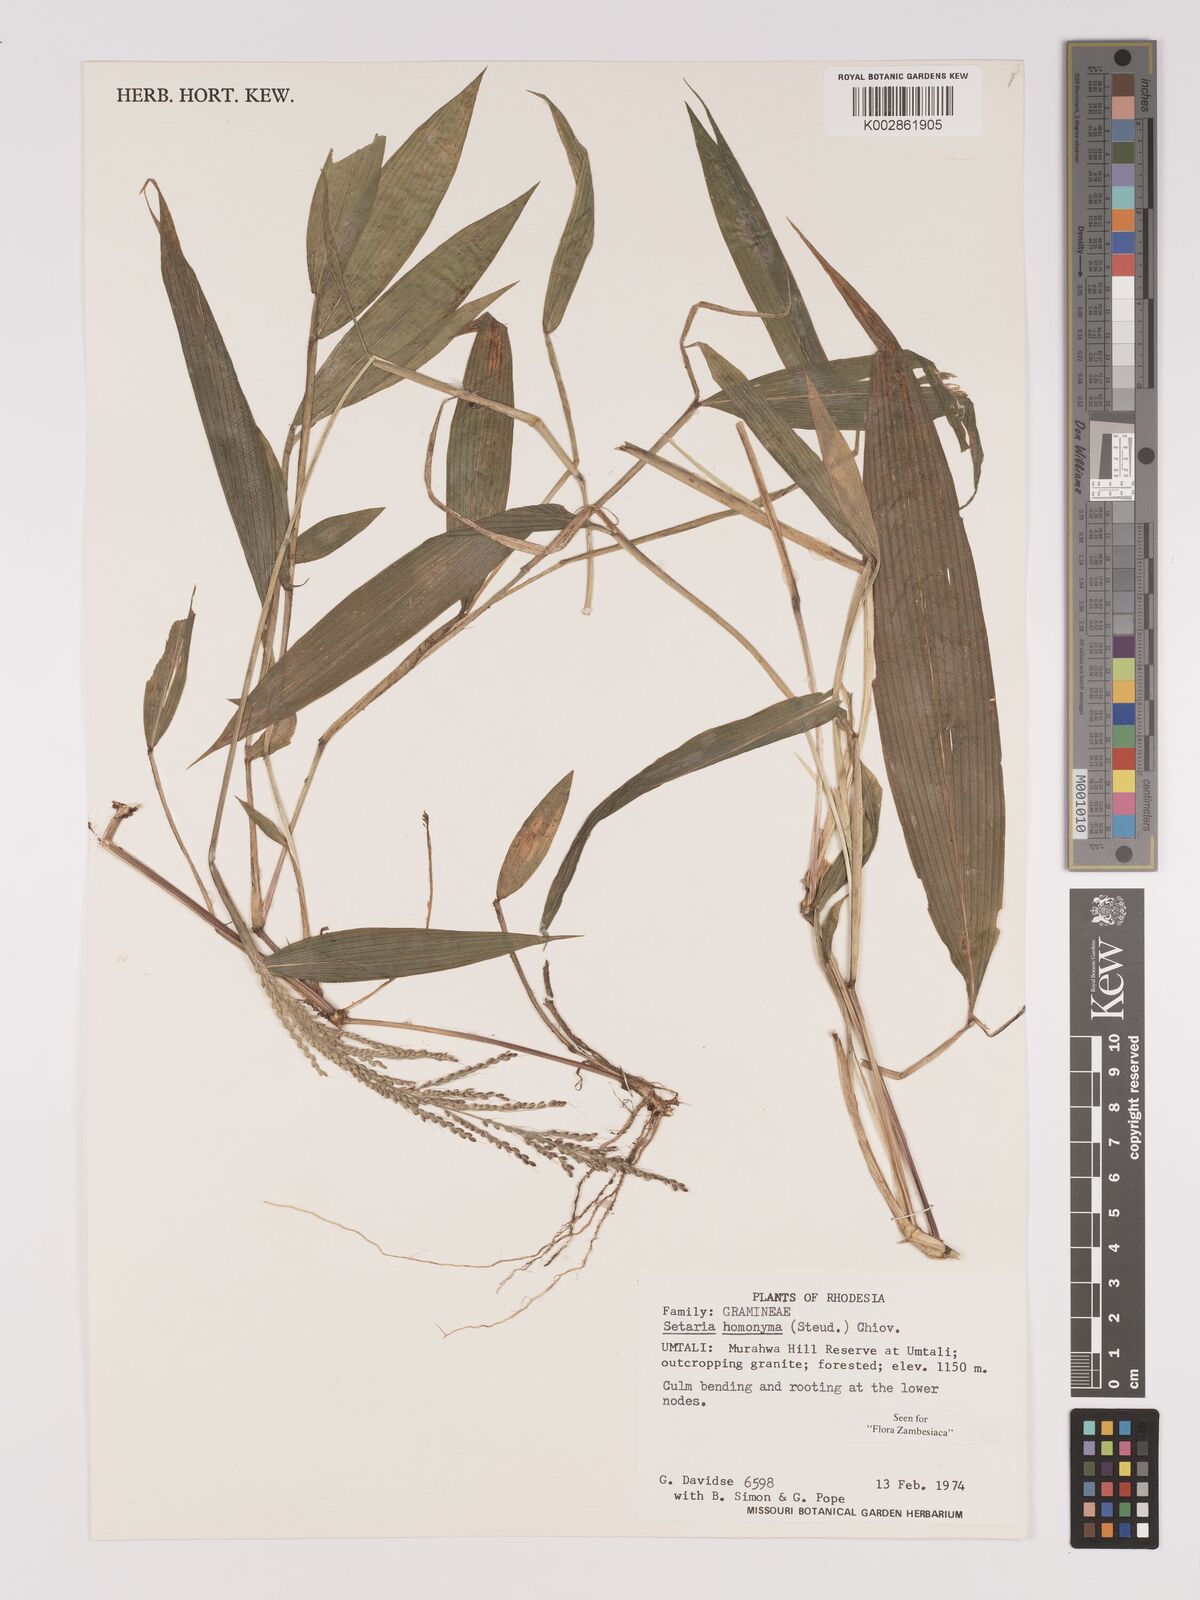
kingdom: Plantae
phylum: Tracheophyta
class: Liliopsida
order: Poales
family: Poaceae
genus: Setaria
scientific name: Setaria homonyma
